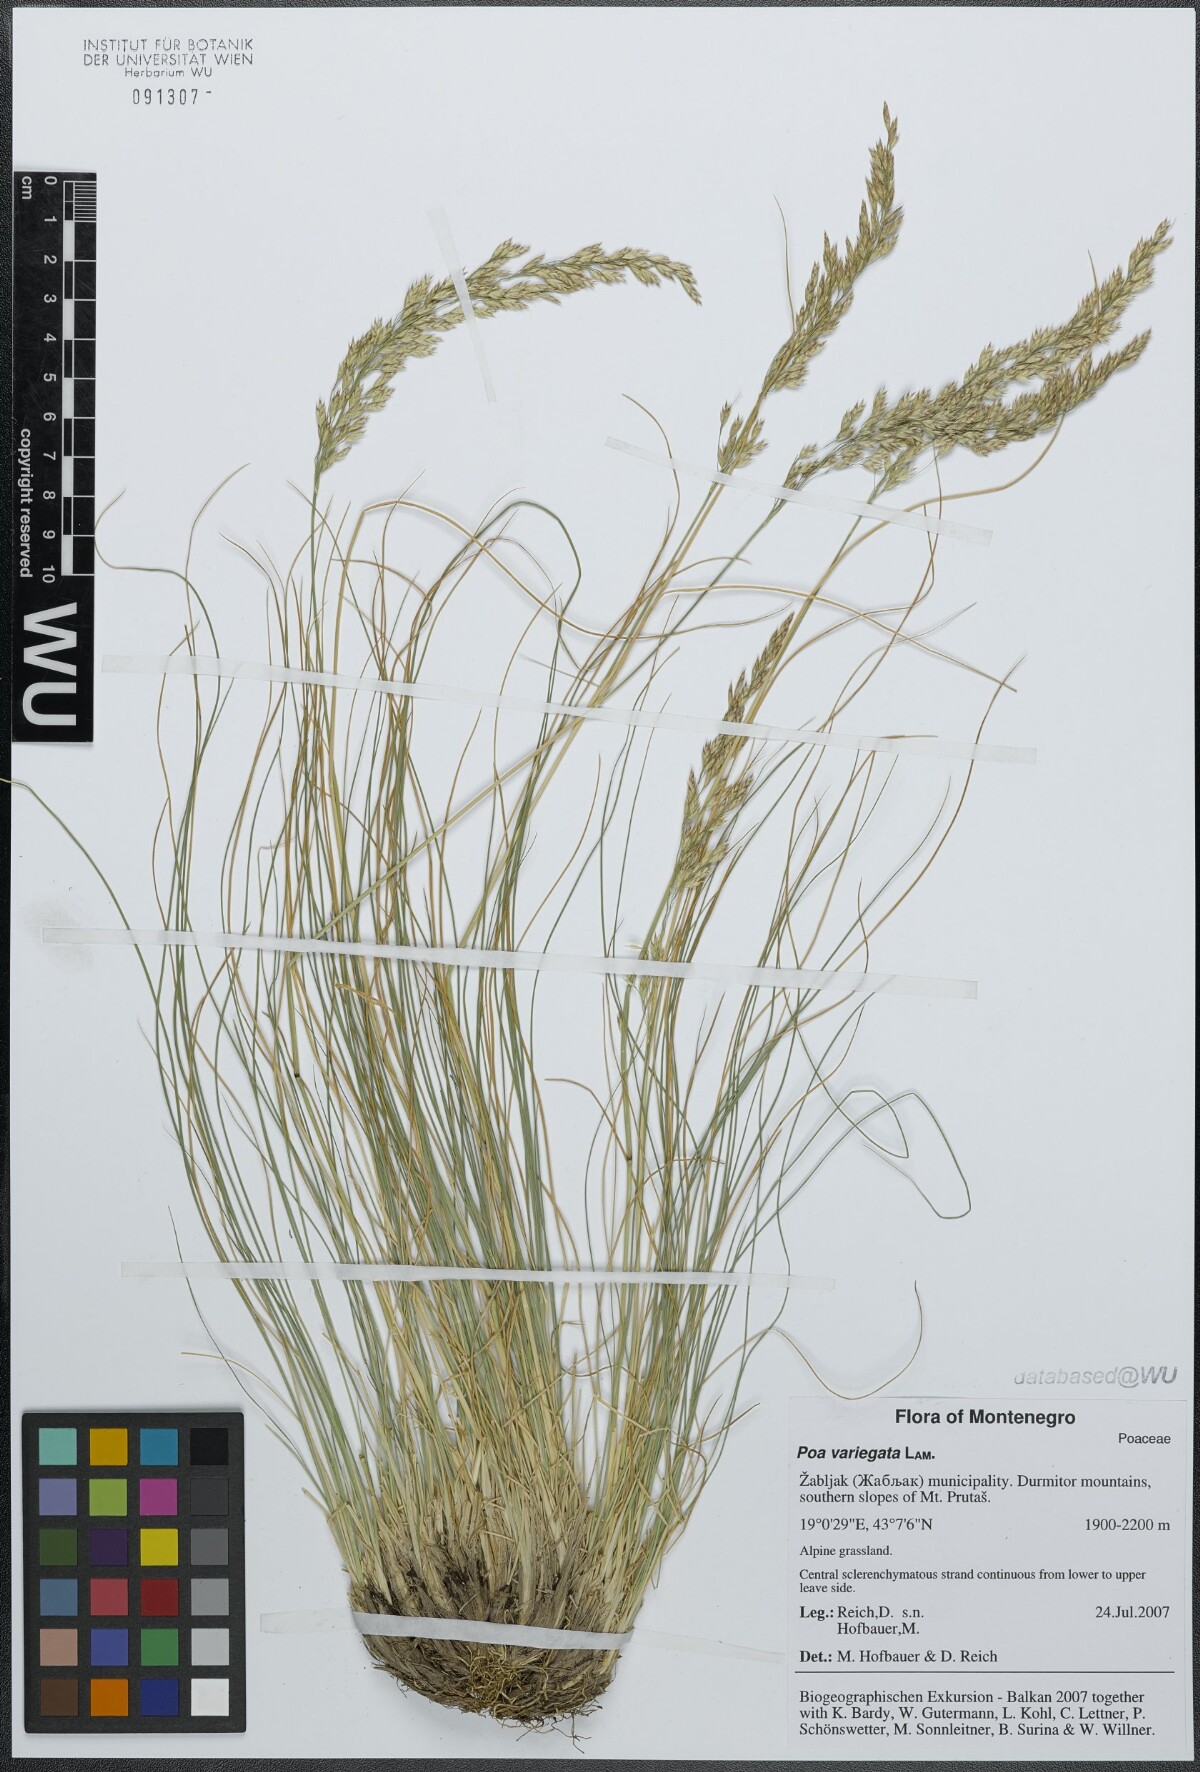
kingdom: Plantae
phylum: Tracheophyta
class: Liliopsida
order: Poales
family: Poaceae
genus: Bellardiochloa
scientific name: Bellardiochloa variegata
